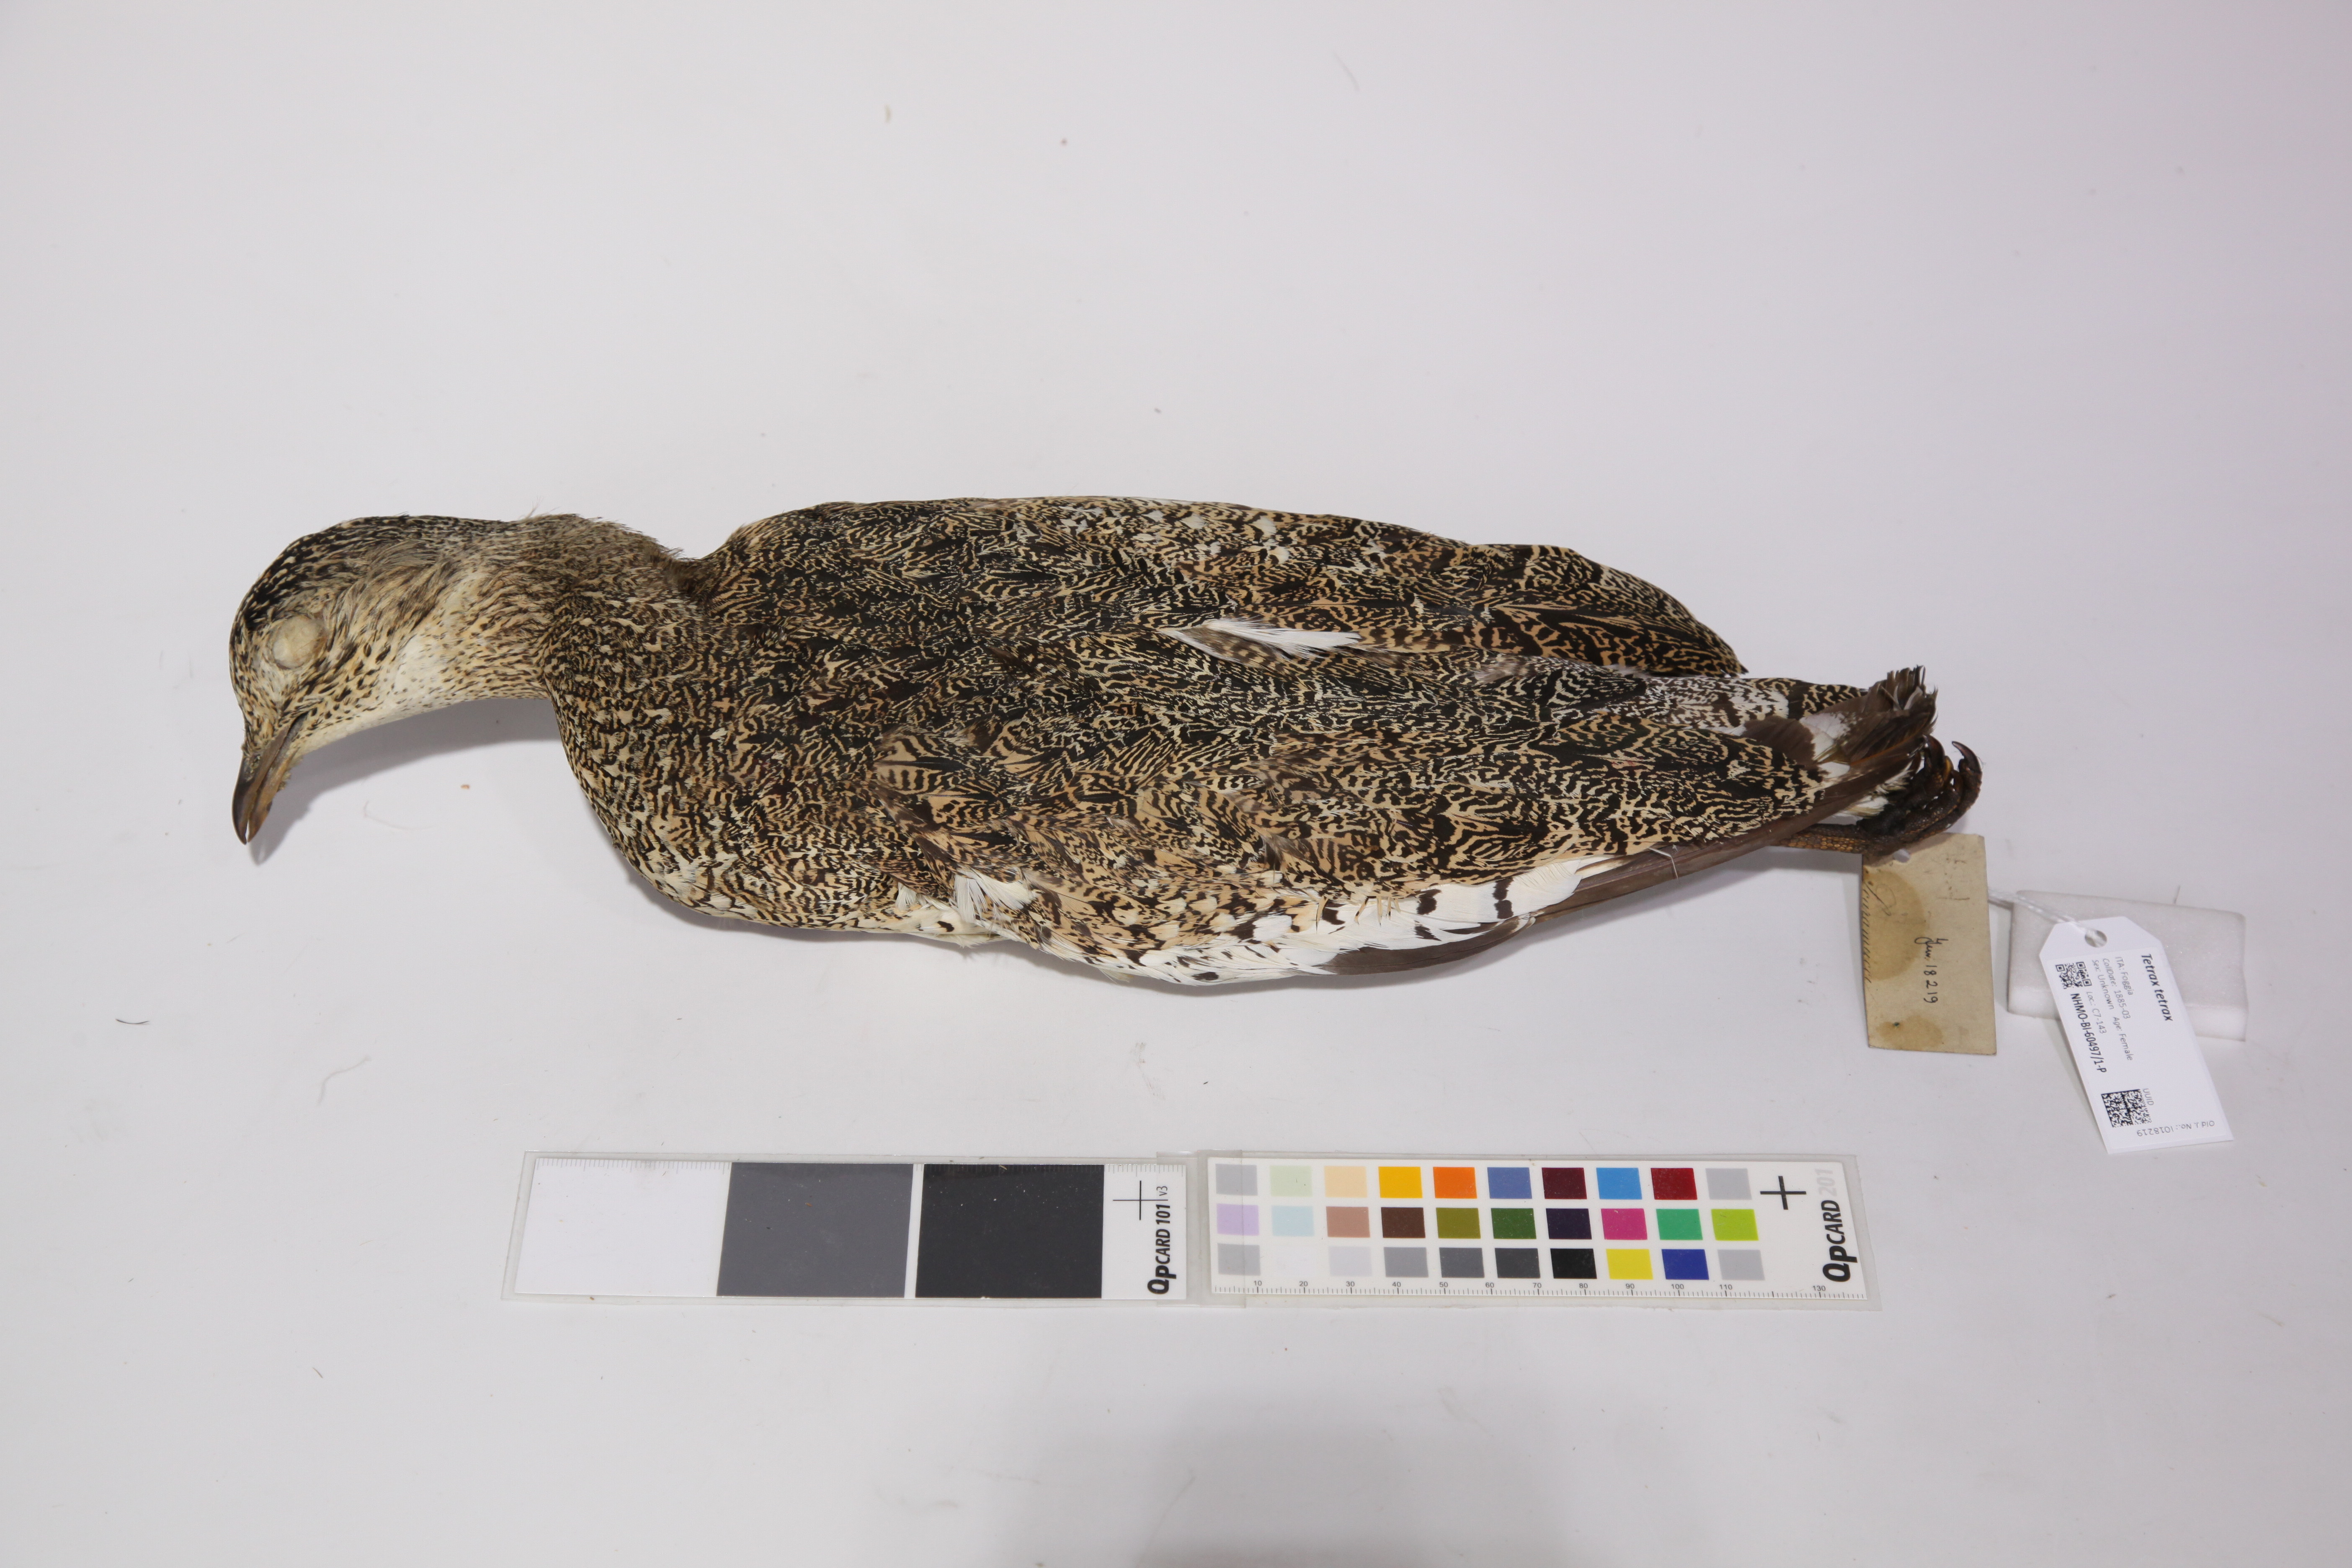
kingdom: Animalia
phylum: Chordata
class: Aves
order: Otidiformes
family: Otididae
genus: Tetrax
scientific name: Tetrax tetrax
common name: Little bustard
